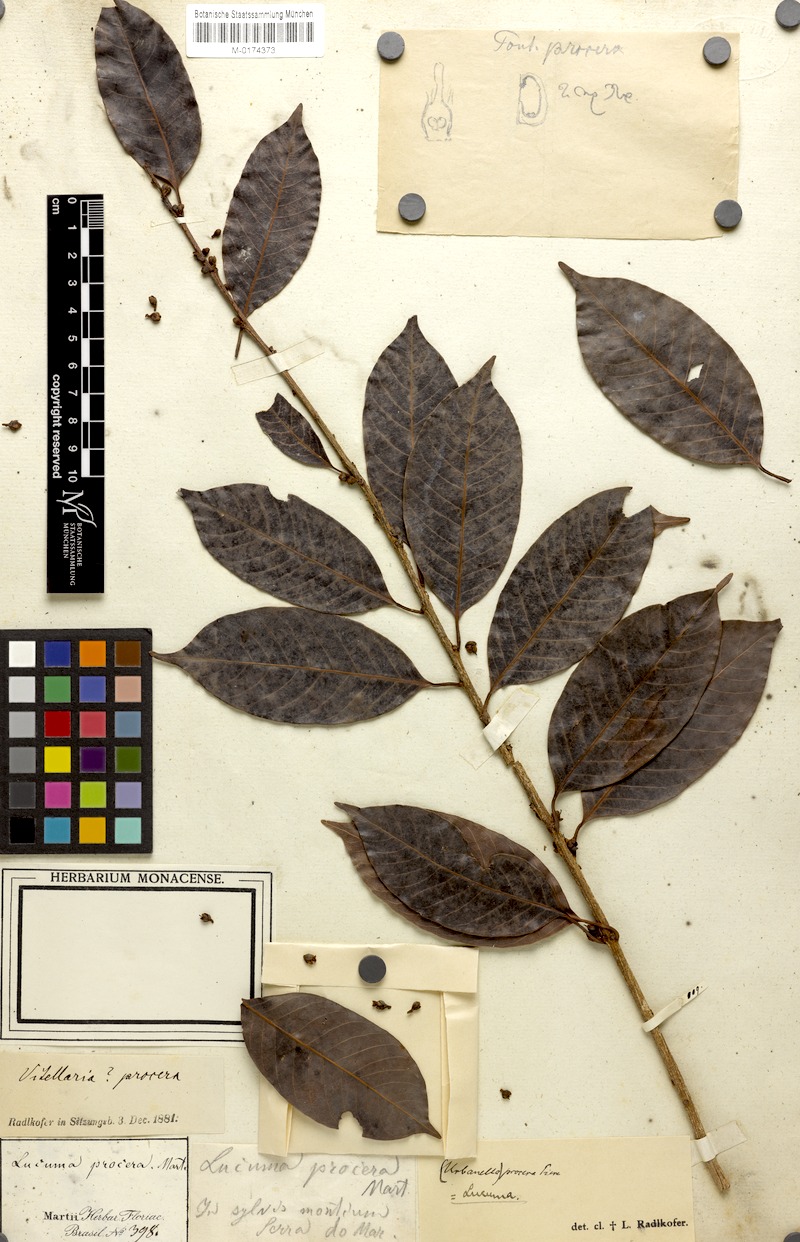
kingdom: Plantae
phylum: Tracheophyta
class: Magnoliopsida
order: Ericales
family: Sapotaceae
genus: Pouteria
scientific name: Pouteria procera
